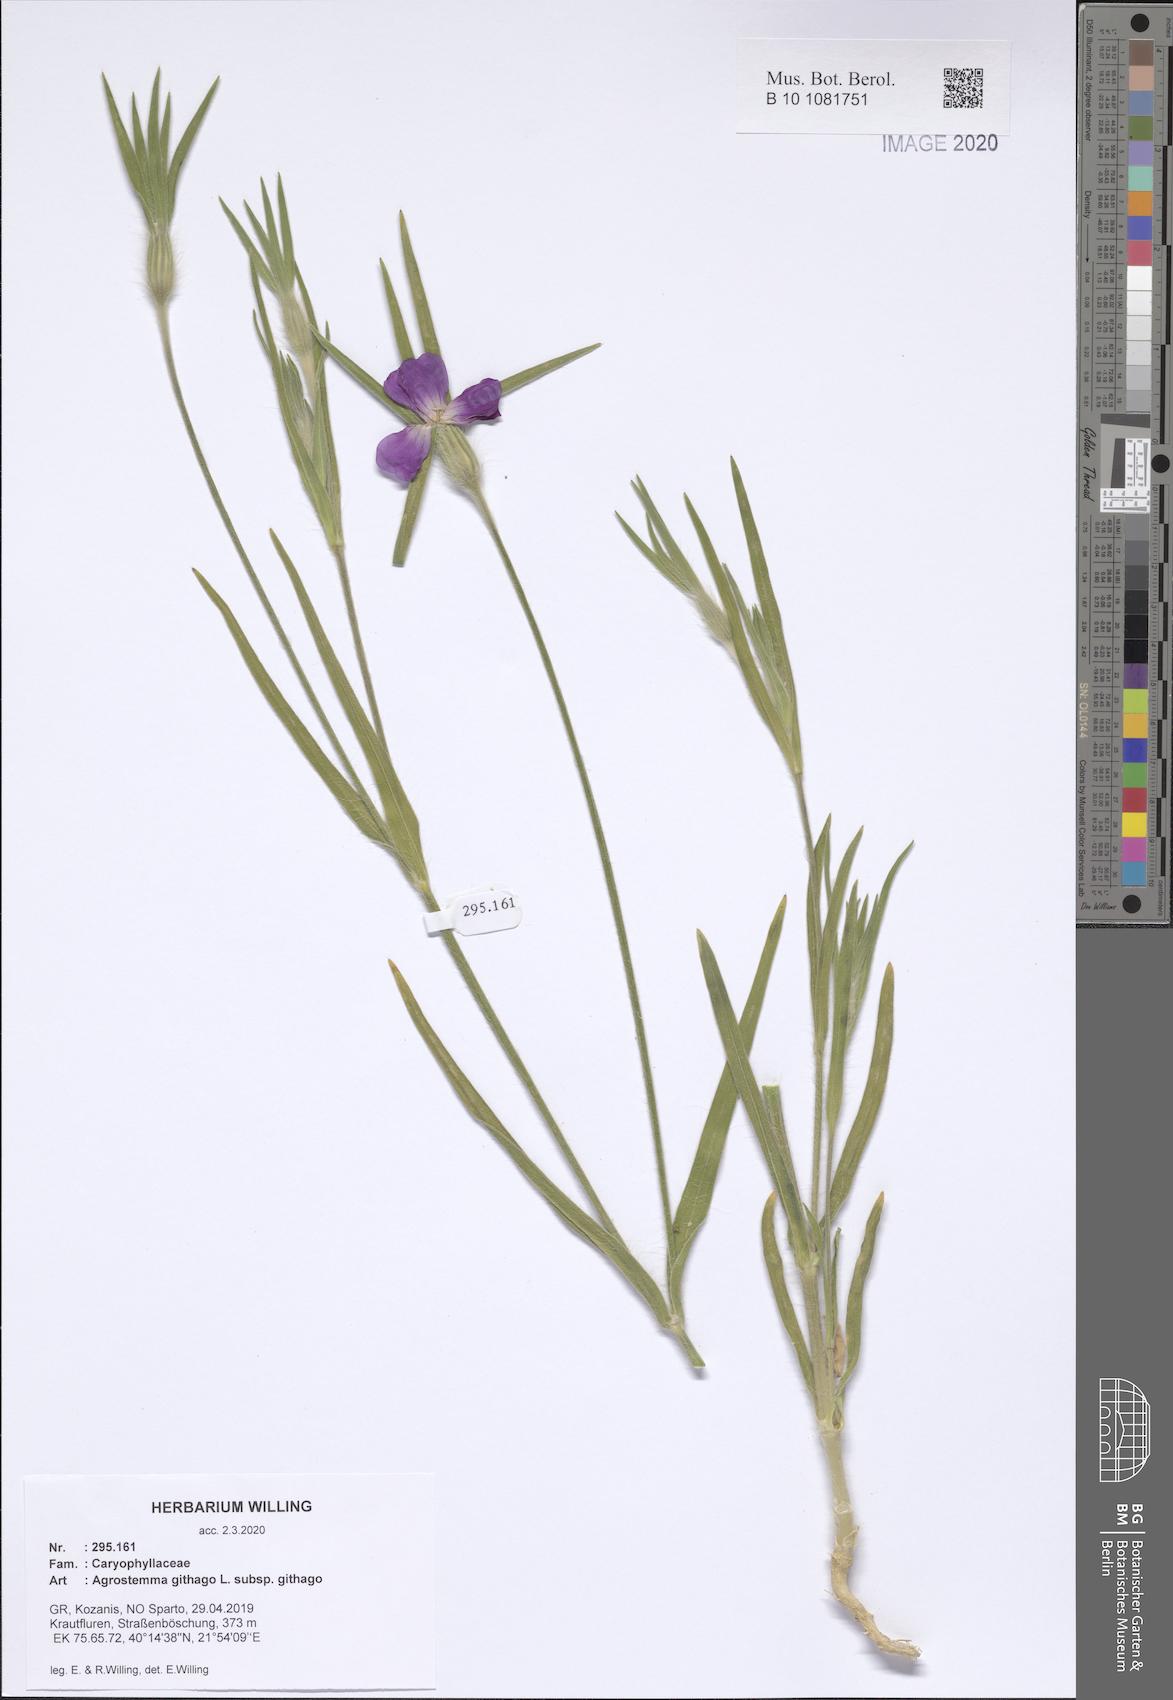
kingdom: Plantae
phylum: Tracheophyta
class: Magnoliopsida
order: Caryophyllales
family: Caryophyllaceae
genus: Agrostemma
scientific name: Agrostemma githago
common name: Common corncockle
